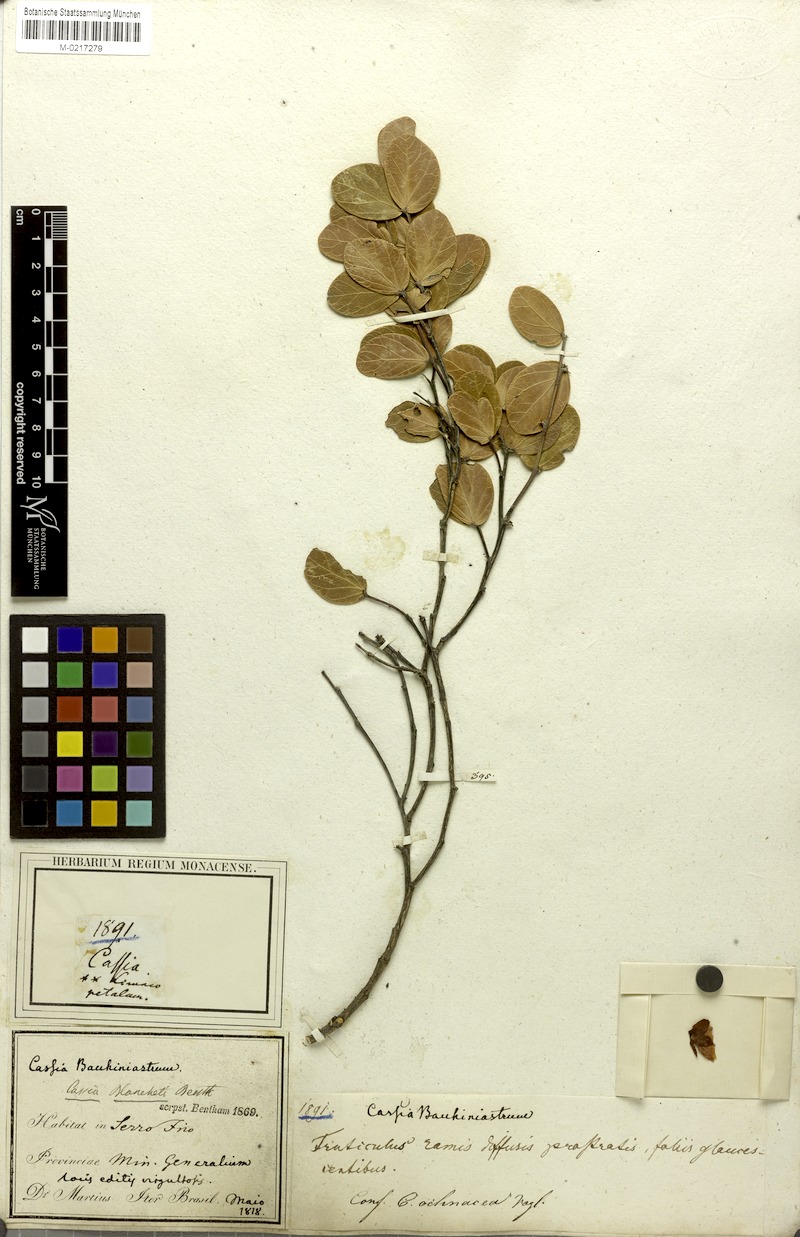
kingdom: Plantae
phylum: Tracheophyta
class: Magnoliopsida
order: Fabales
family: Fabaceae
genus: Chamaecrista
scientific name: Chamaecrista blanchetii
